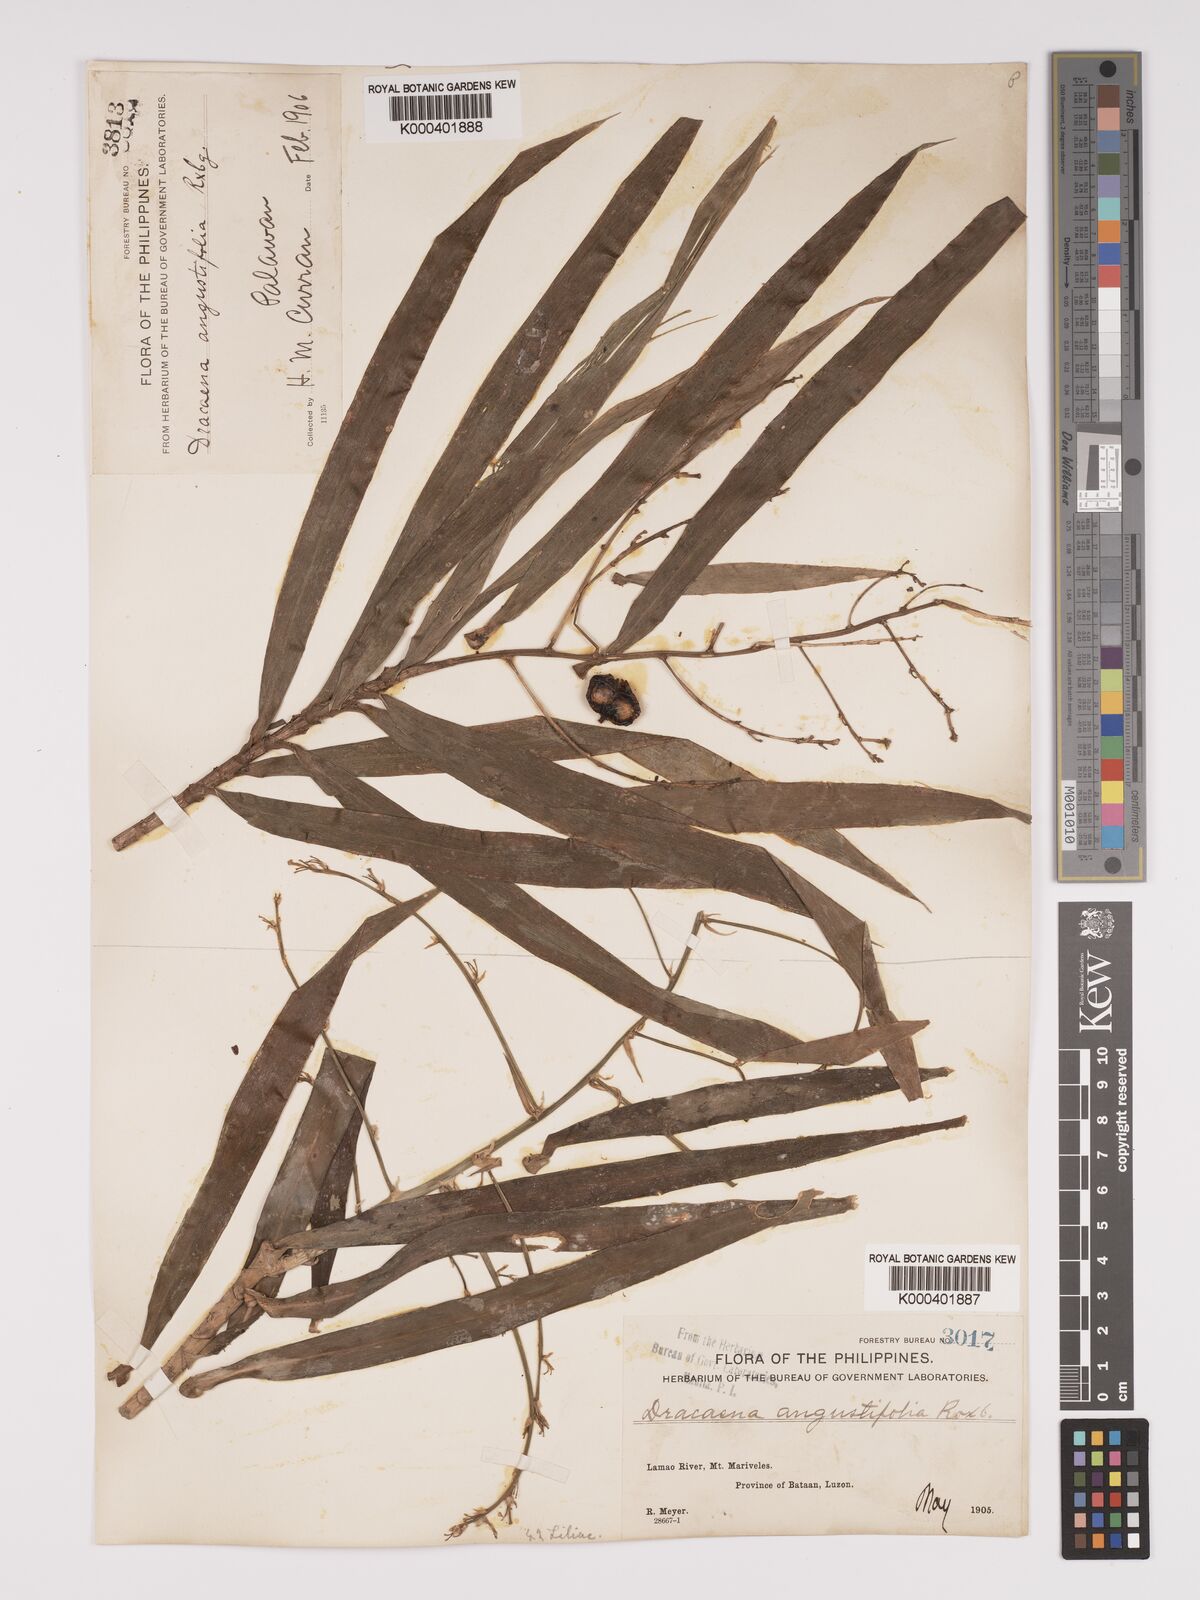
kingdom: Plantae
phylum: Tracheophyta
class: Liliopsida
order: Asparagales
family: Asparagaceae
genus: Dracaena
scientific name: Dracaena angustifolia
